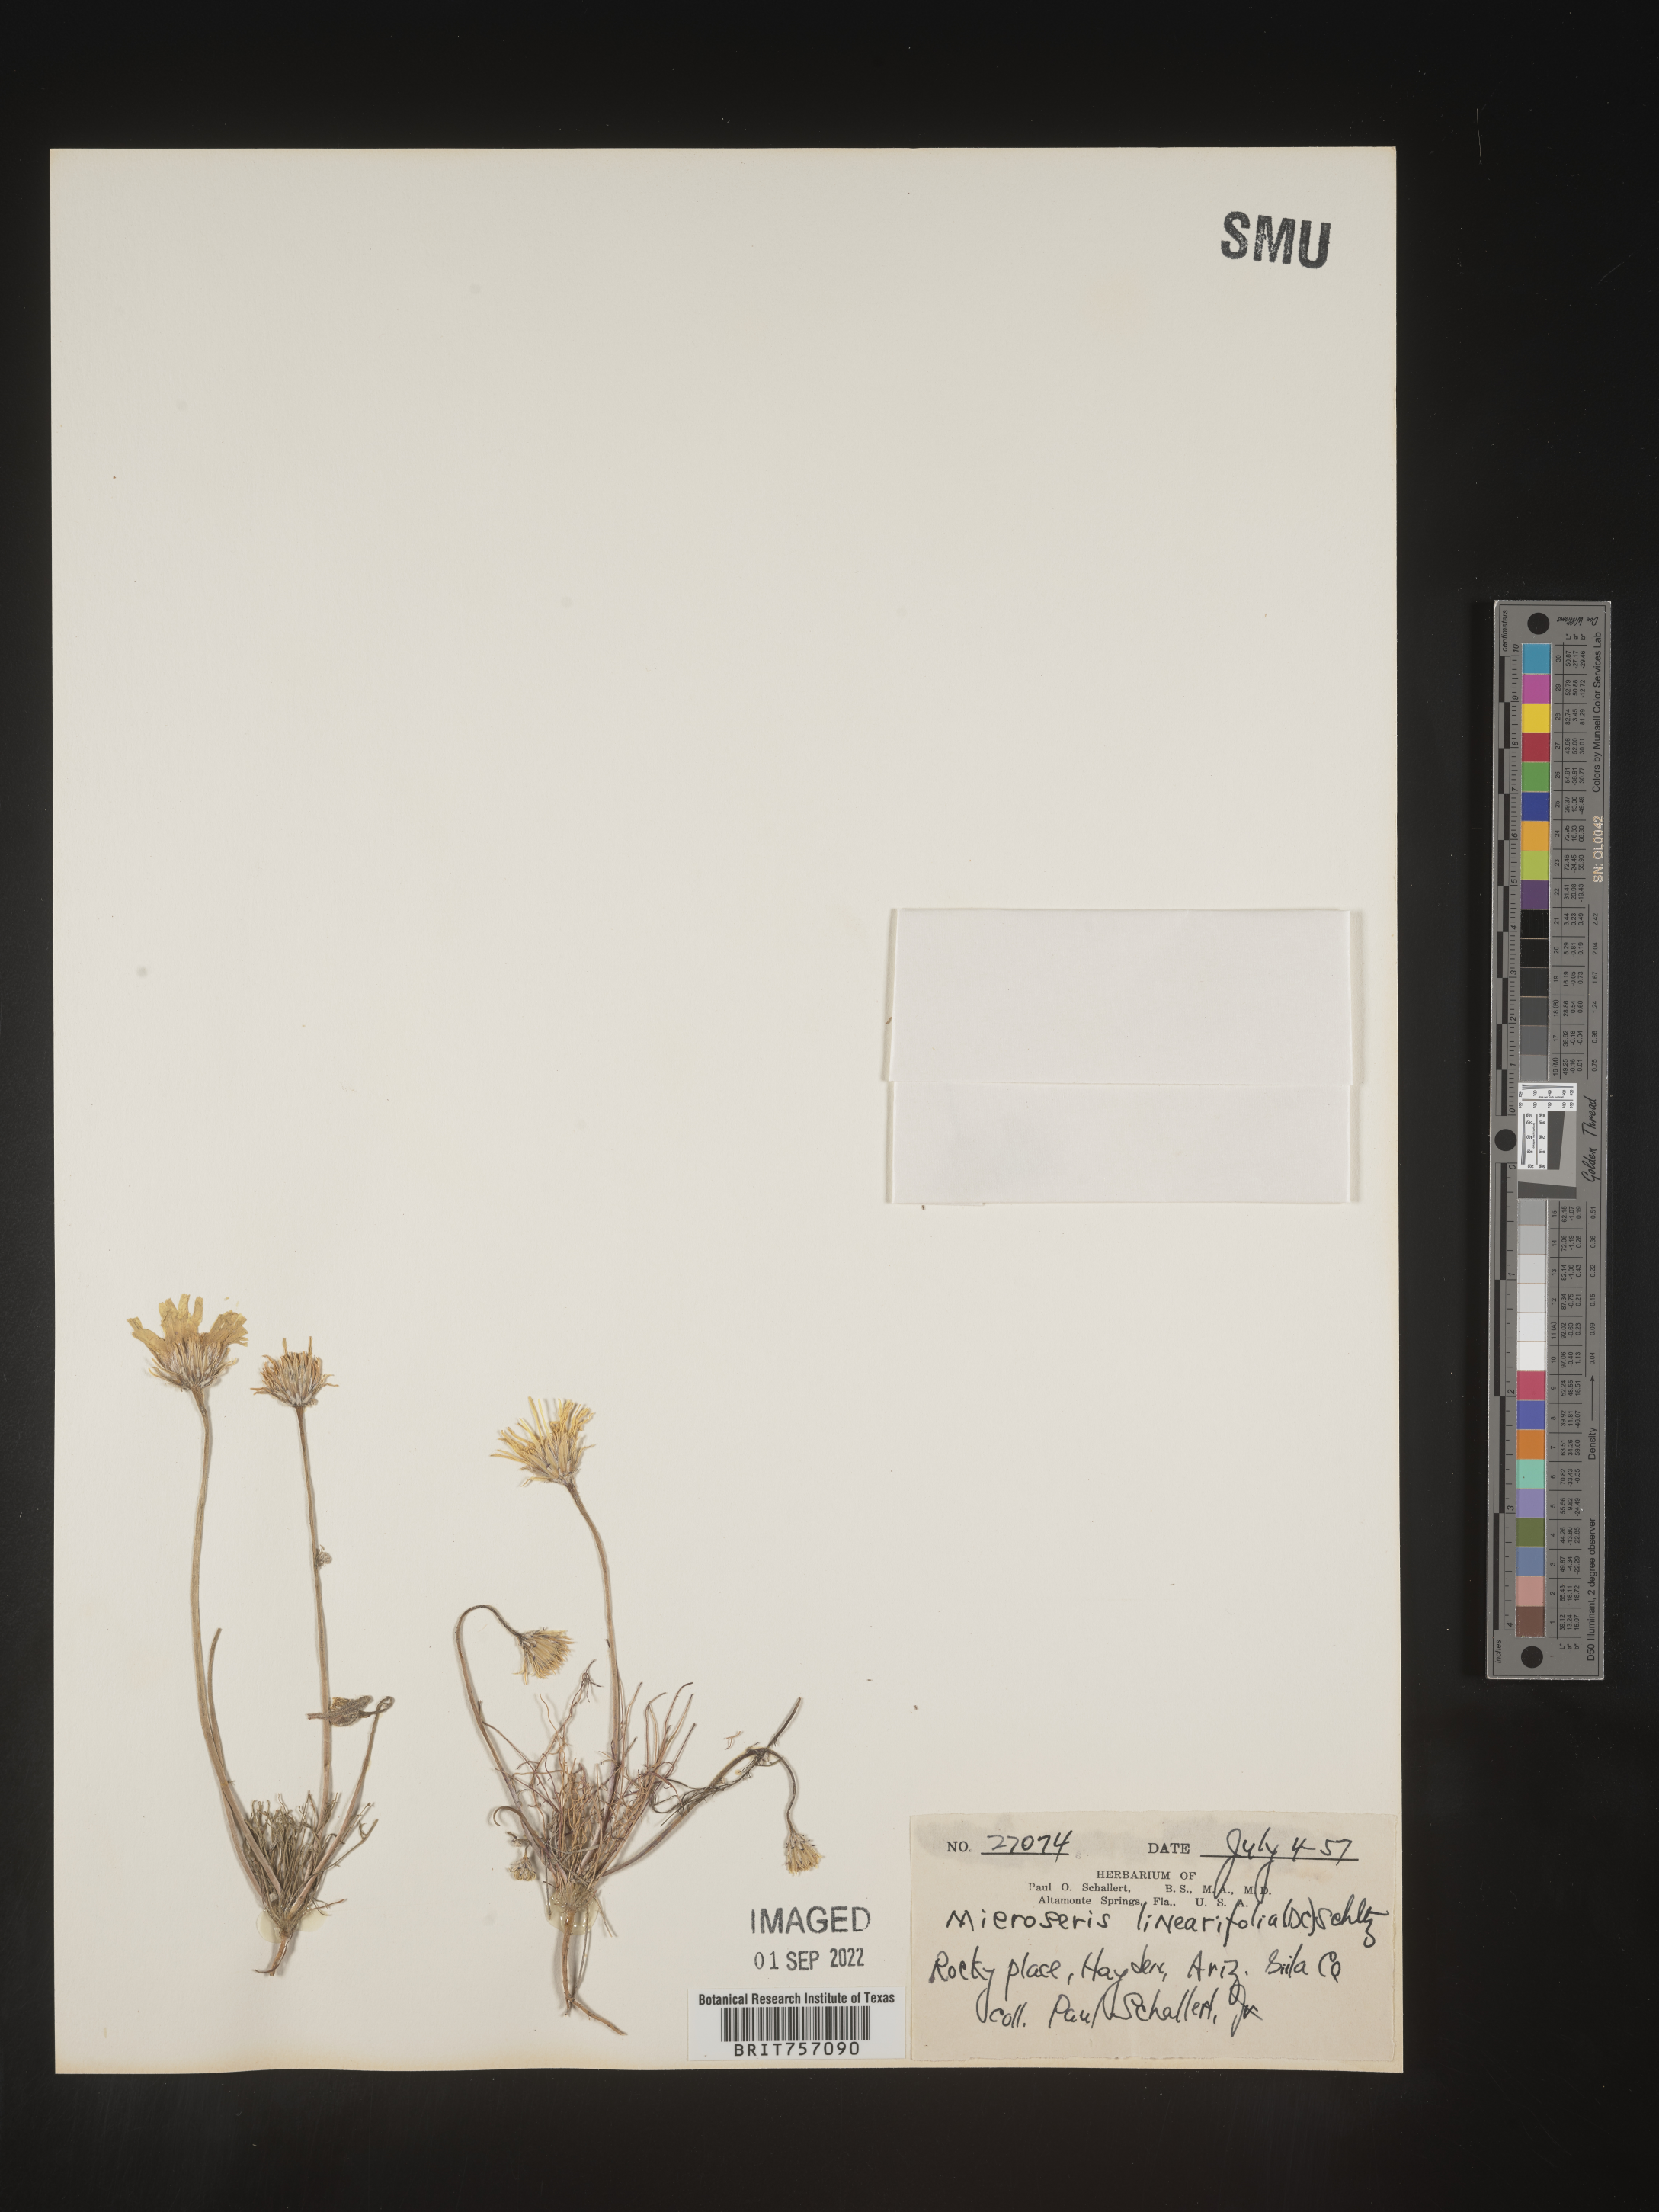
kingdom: Plantae
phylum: Tracheophyta
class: Magnoliopsida
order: Asterales
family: Asteraceae
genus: Microseris
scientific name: Microseris
